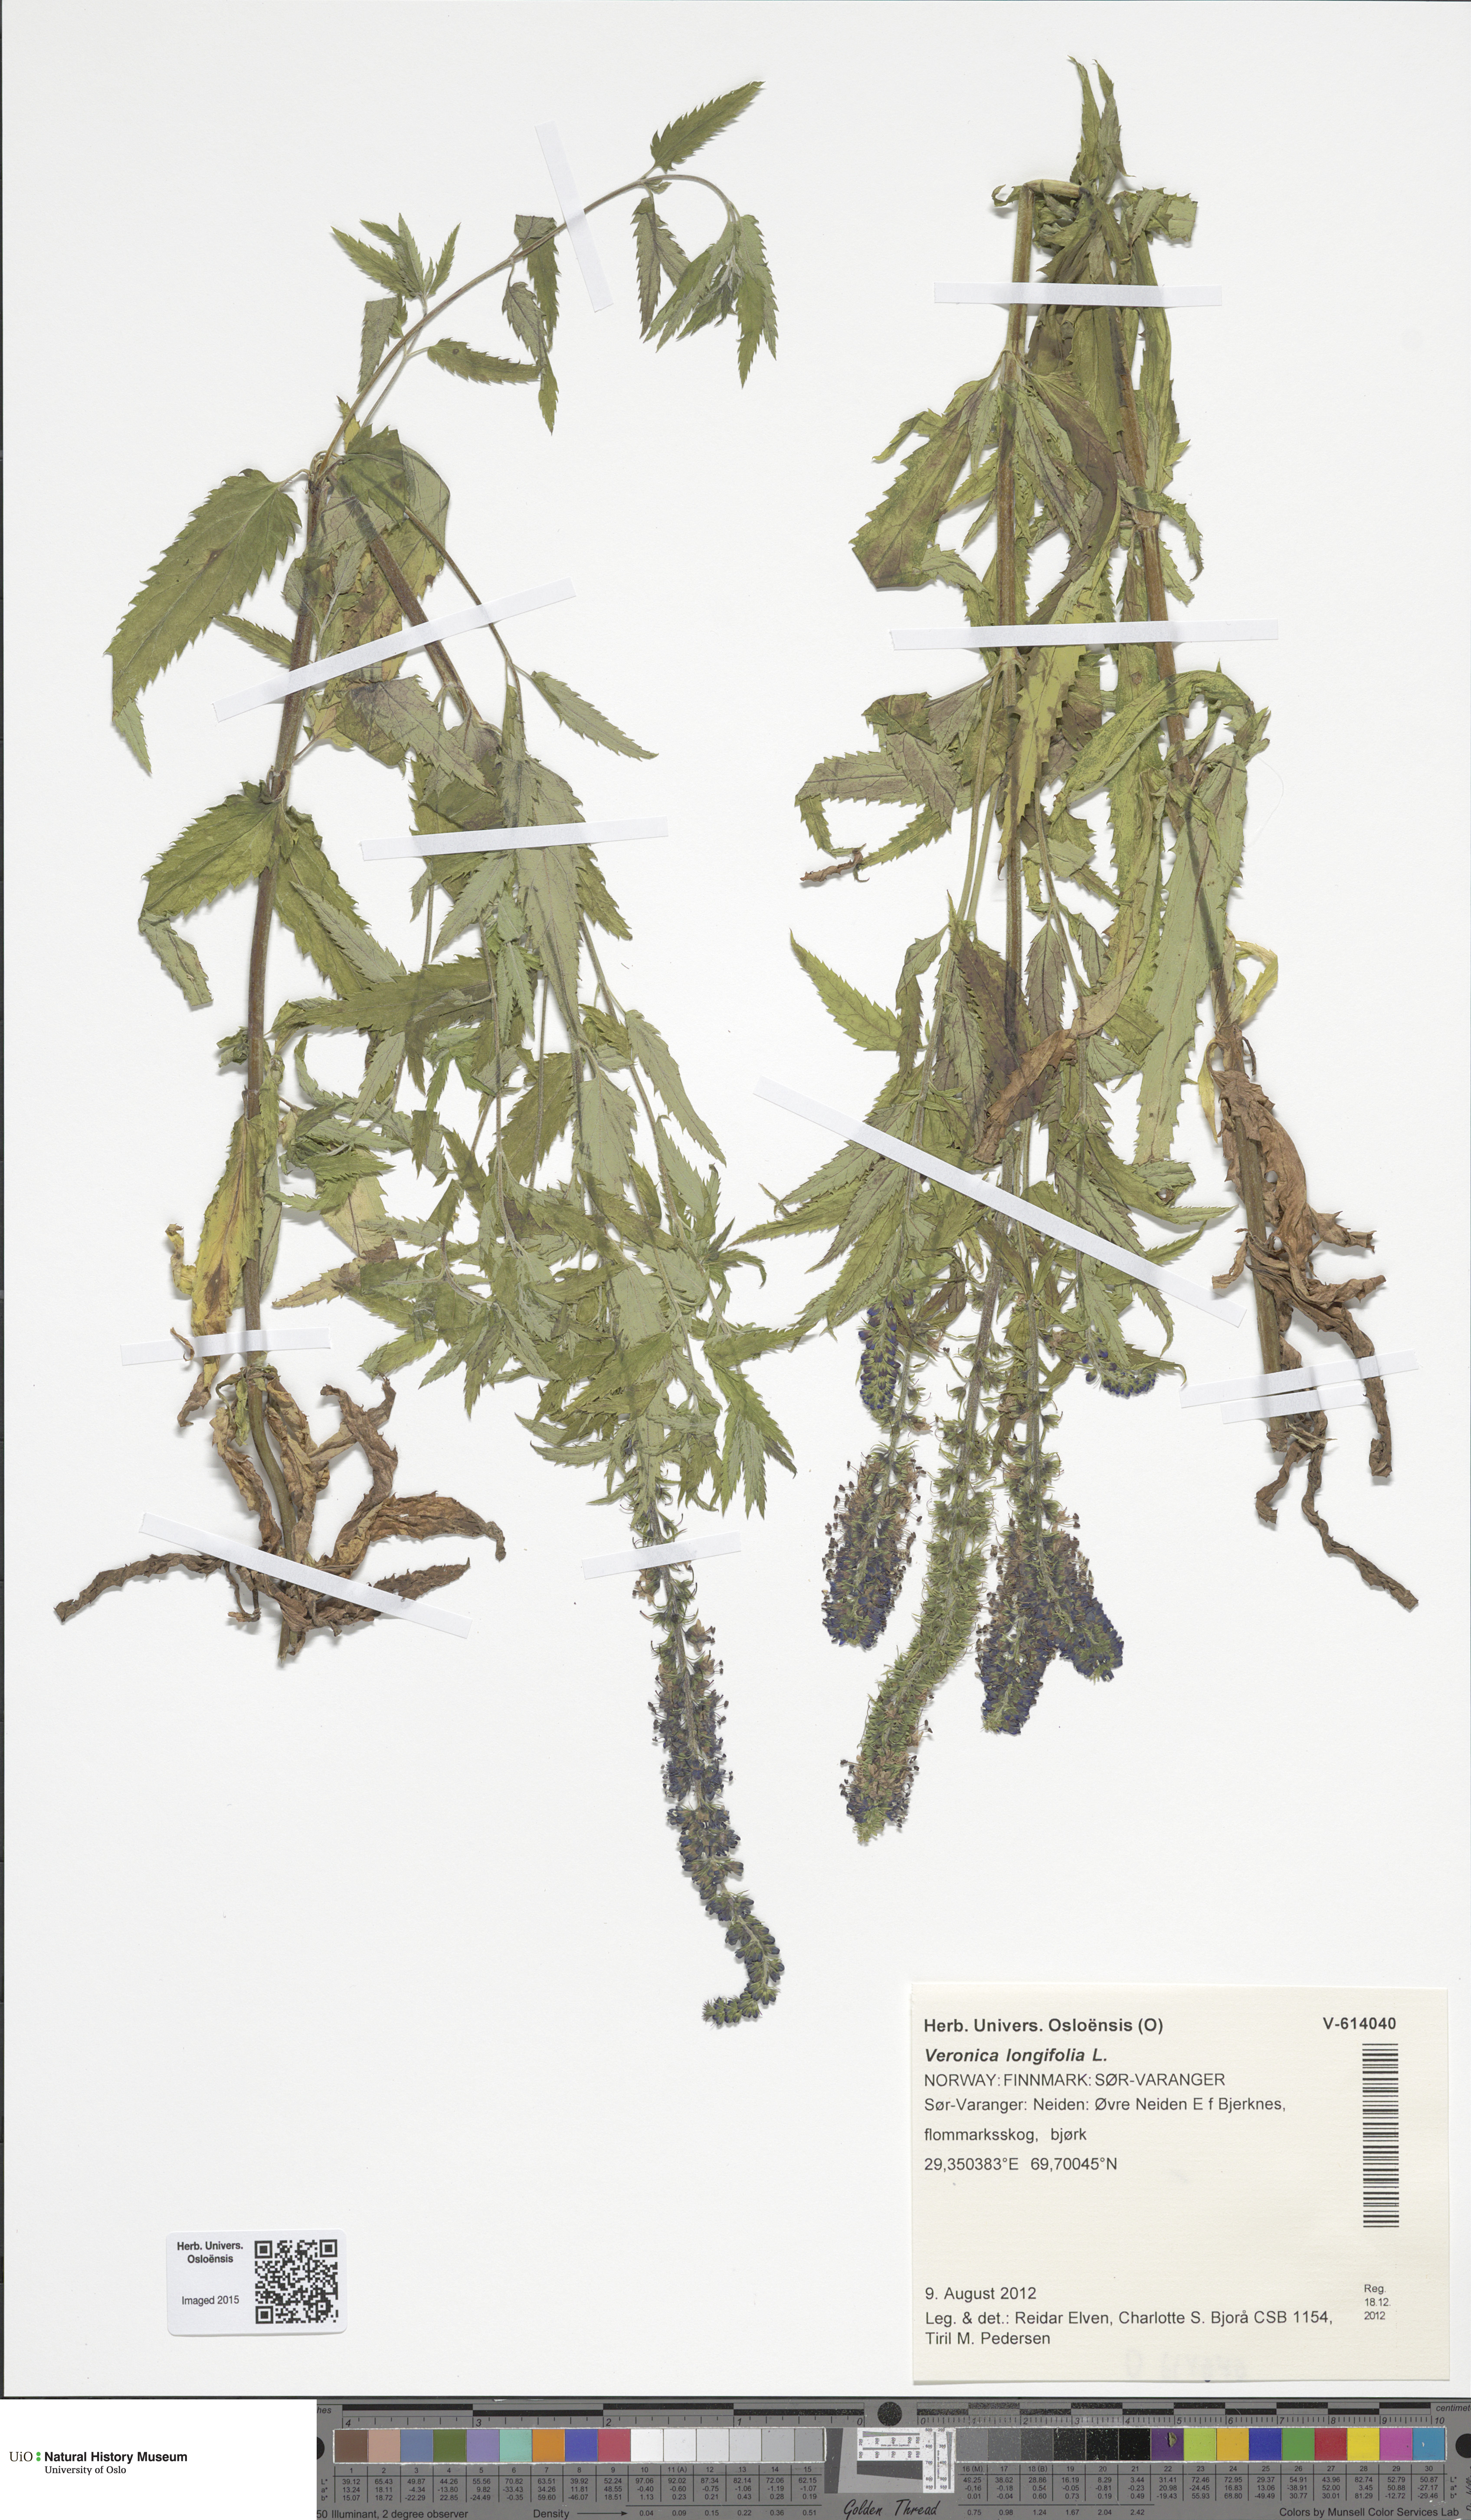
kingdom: Plantae
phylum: Tracheophyta
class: Magnoliopsida
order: Lamiales
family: Plantaginaceae
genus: Veronica
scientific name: Veronica longifolia
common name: Garden speedwell
